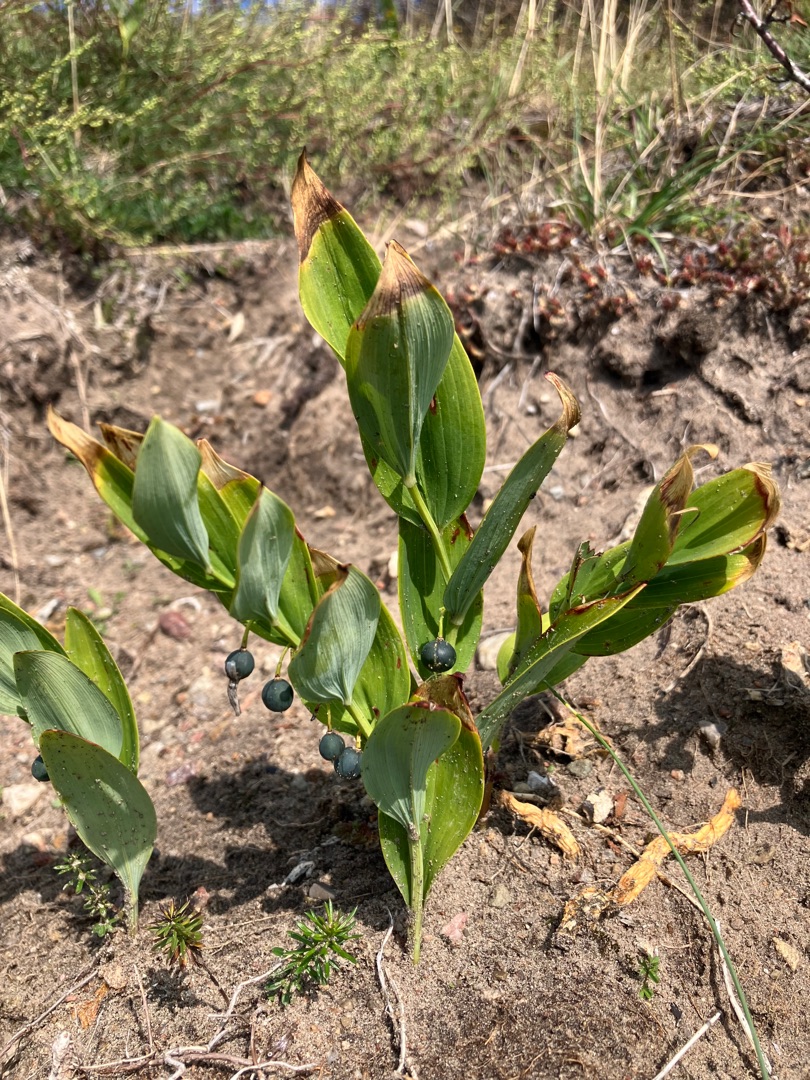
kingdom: Plantae
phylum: Tracheophyta
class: Liliopsida
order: Asparagales
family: Asparagaceae
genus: Polygonatum
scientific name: Polygonatum odoratum
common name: Kantet konval
